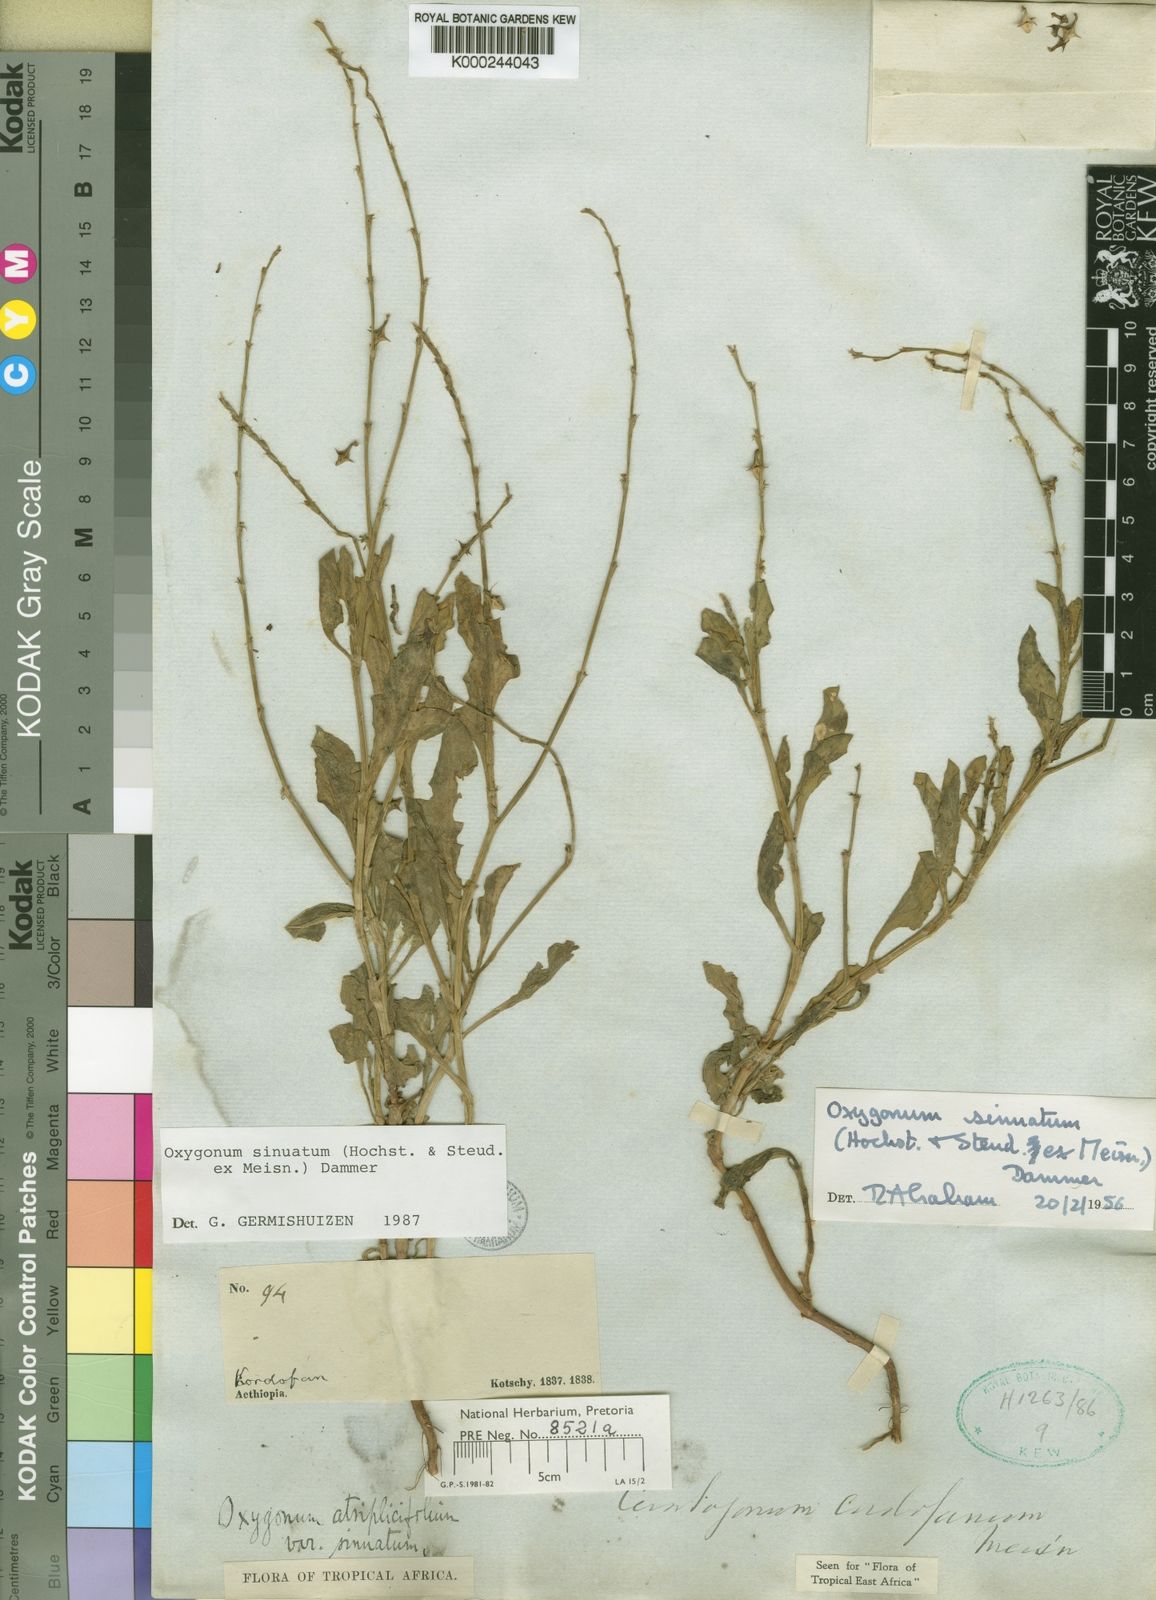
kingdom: Plantae
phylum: Tracheophyta
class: Magnoliopsida
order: Caryophyllales
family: Polygonaceae
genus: Oxygonum
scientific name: Oxygonum sinuatum
